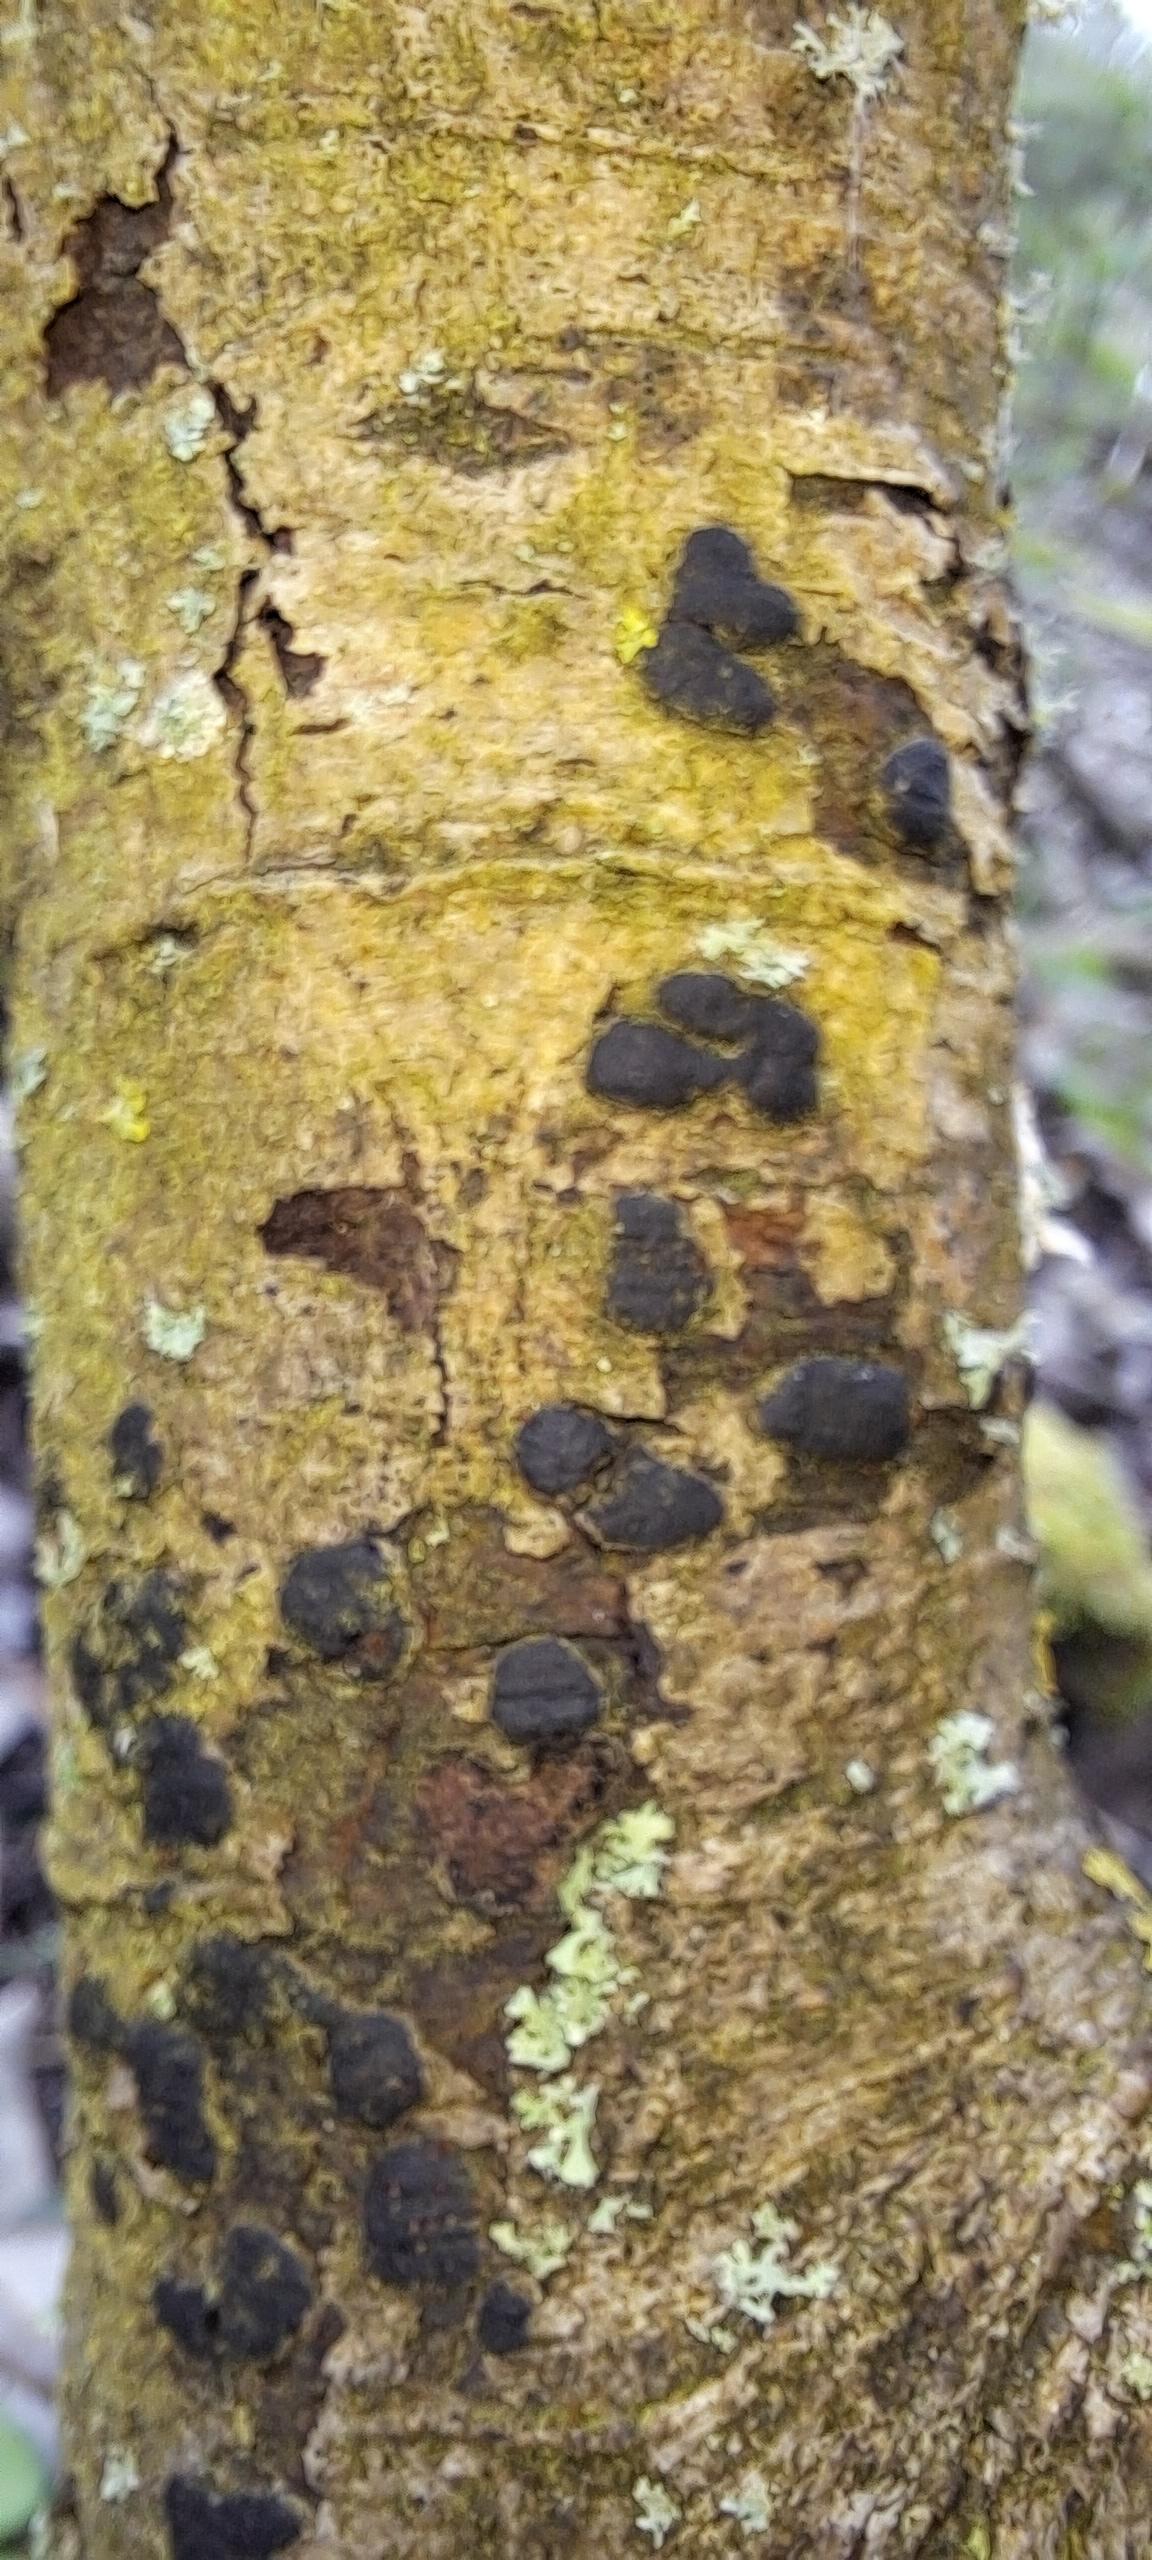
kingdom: Fungi
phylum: Ascomycota
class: Sordariomycetes
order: Xylariales
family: Diatrypaceae
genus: Diatrype
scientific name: Diatrype bullata
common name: pile-kulskorpe
